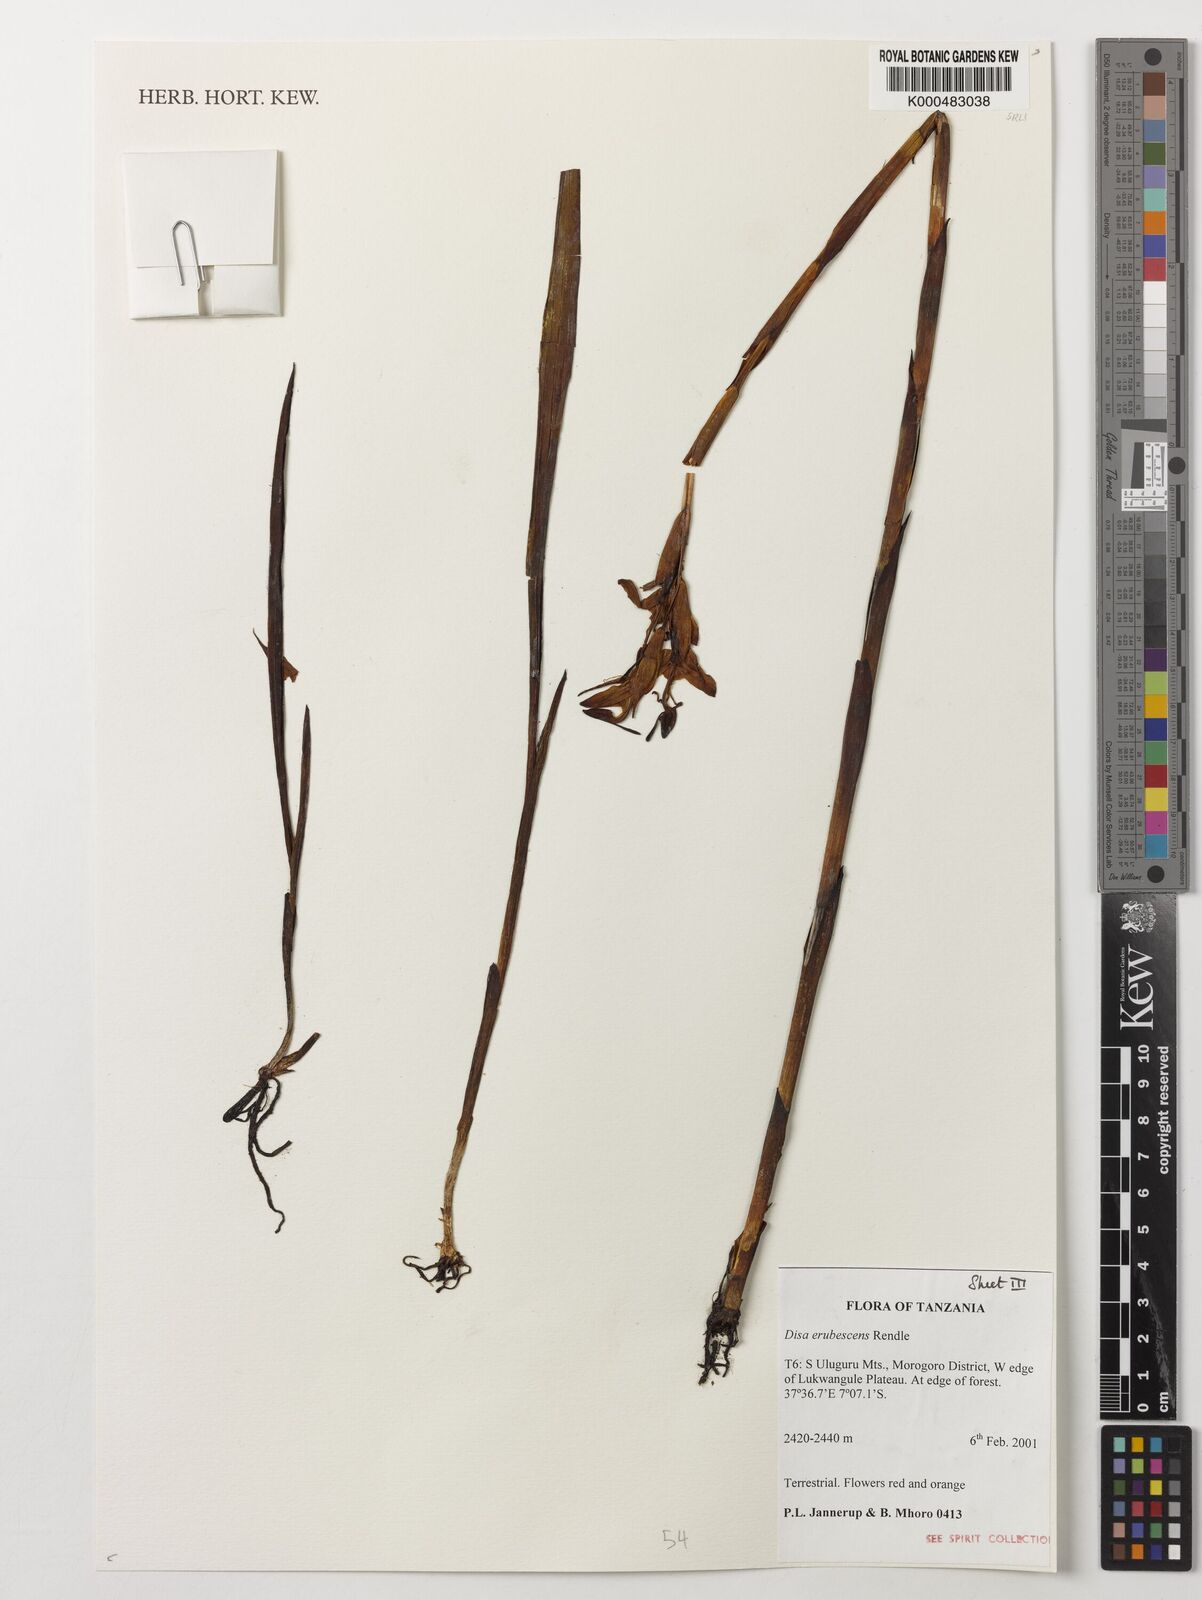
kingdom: Plantae
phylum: Tracheophyta
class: Liliopsida
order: Asparagales
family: Orchidaceae
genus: Disa
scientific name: Disa erubescens
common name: The rose disa
